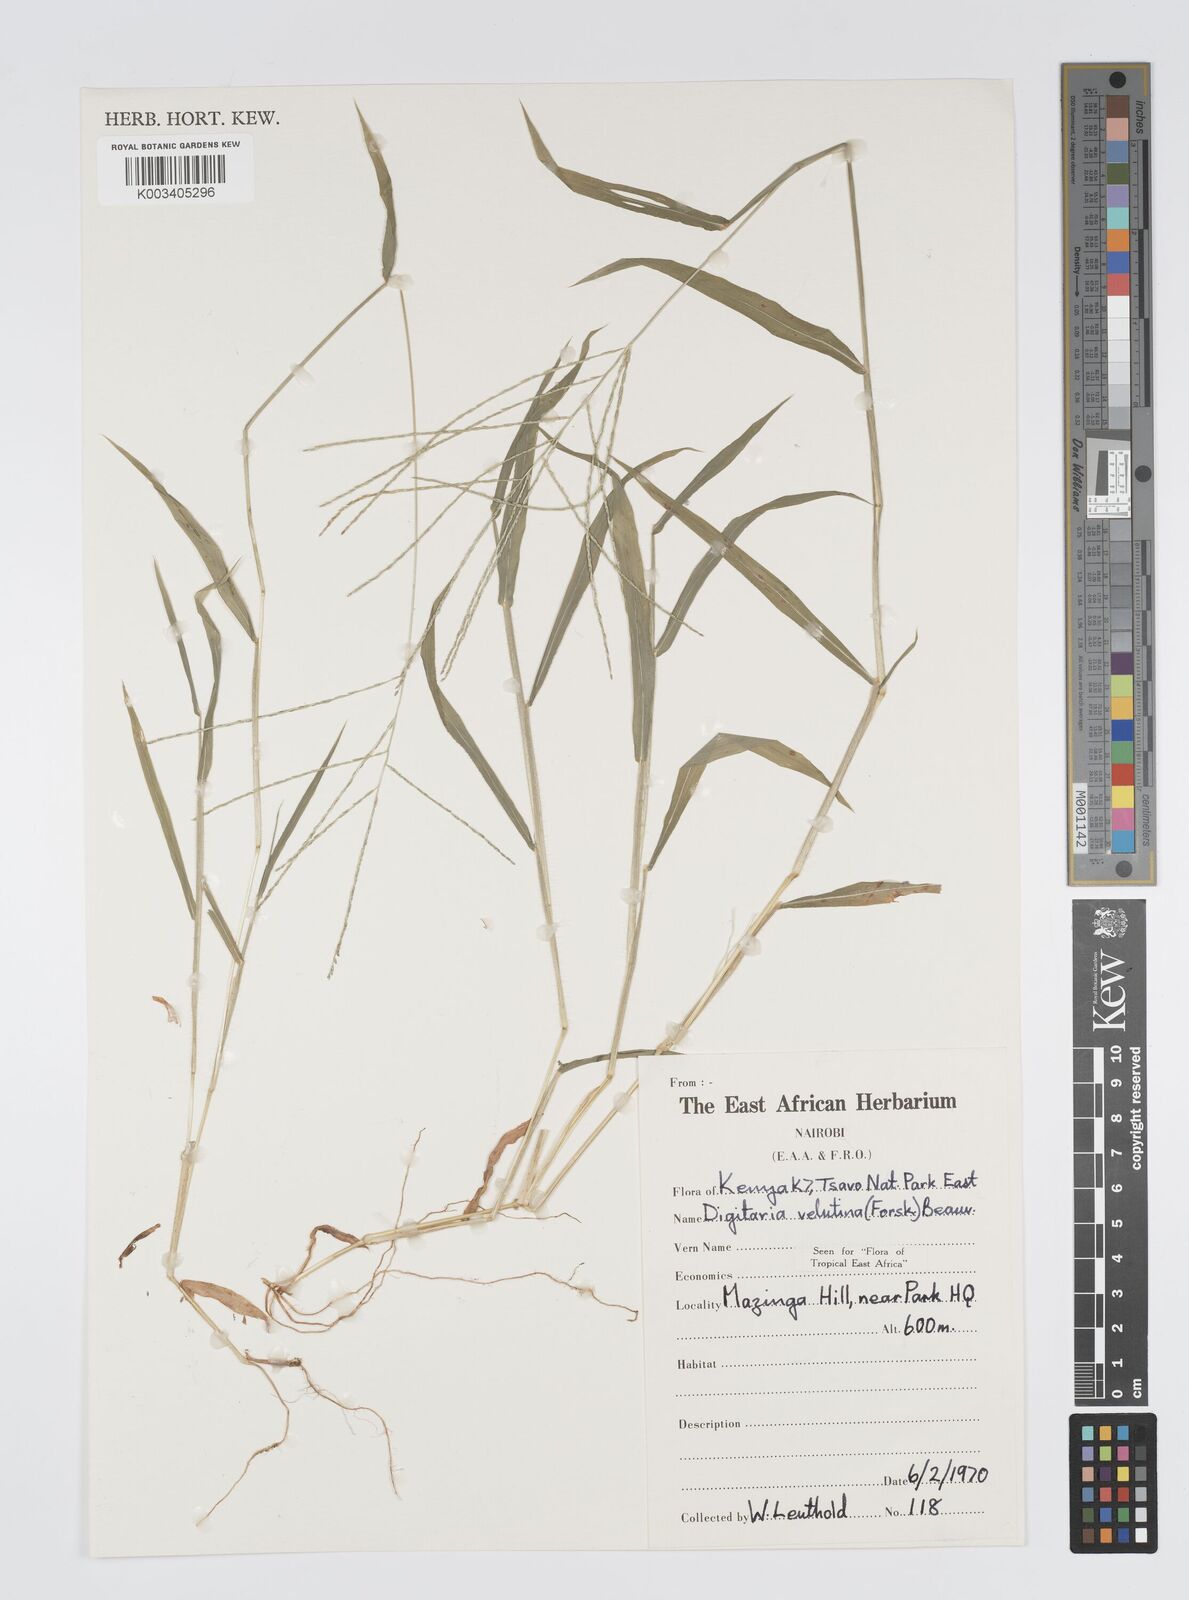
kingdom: Plantae
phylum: Tracheophyta
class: Liliopsida
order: Poales
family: Poaceae
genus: Digitaria
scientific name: Digitaria velutina
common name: Long-plume finger grass
